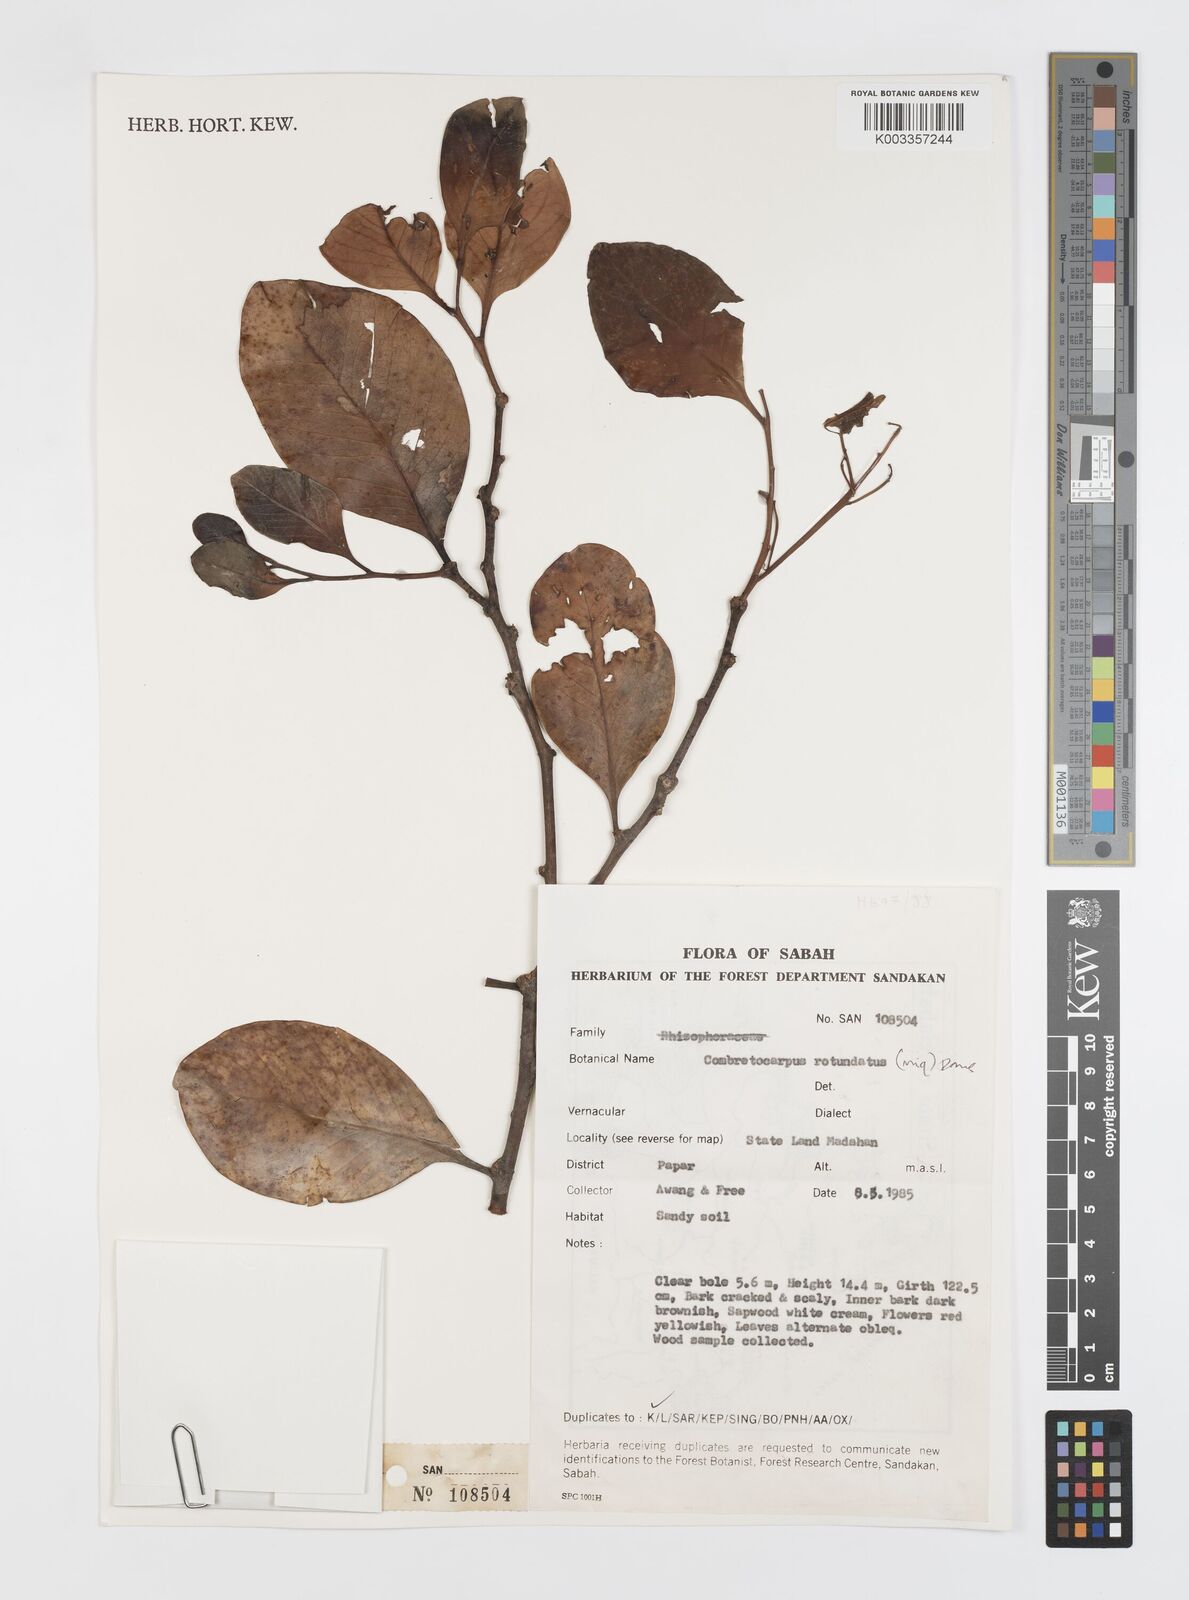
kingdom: Plantae
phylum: Tracheophyta
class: Magnoliopsida
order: Cucurbitales
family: Anisophylleaceae
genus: Combretocarpus
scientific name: Combretocarpus rotundatus
